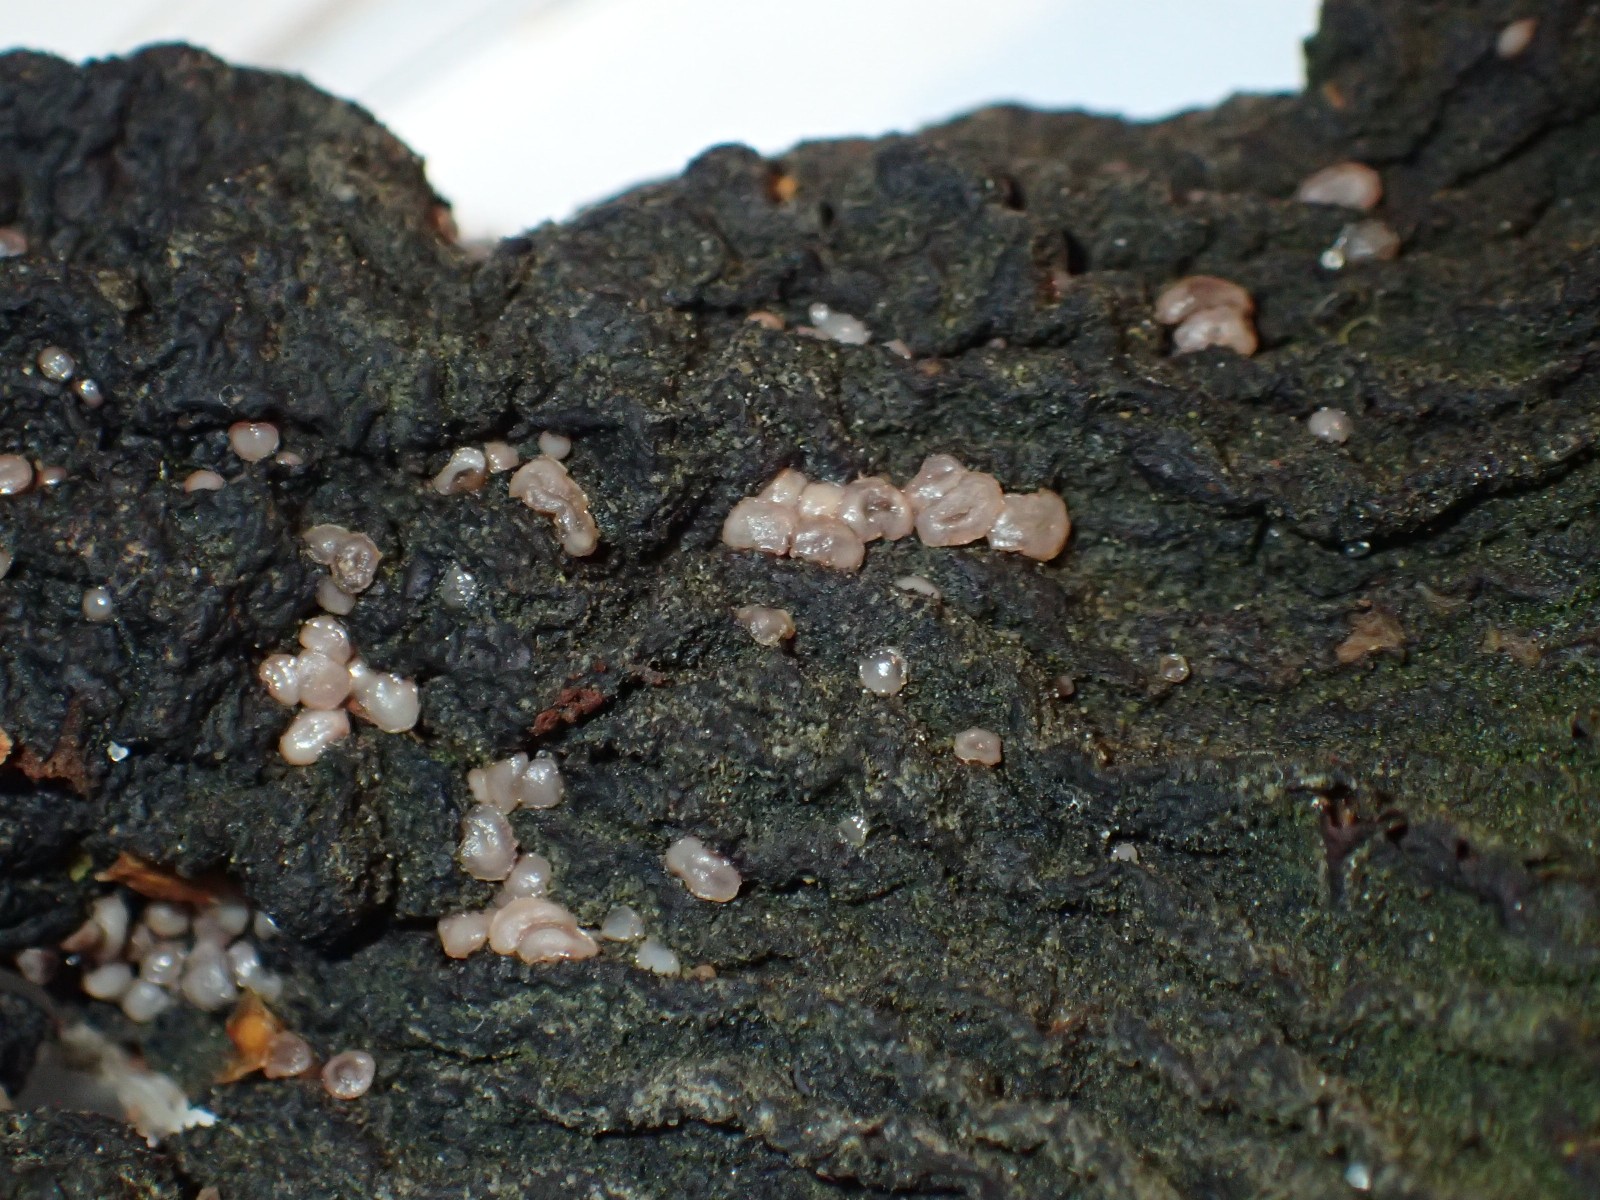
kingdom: Fungi
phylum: Ascomycota
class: Leotiomycetes
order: Helotiales
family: Gelatinodiscaceae
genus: Ascocoryne
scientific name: Ascocoryne
